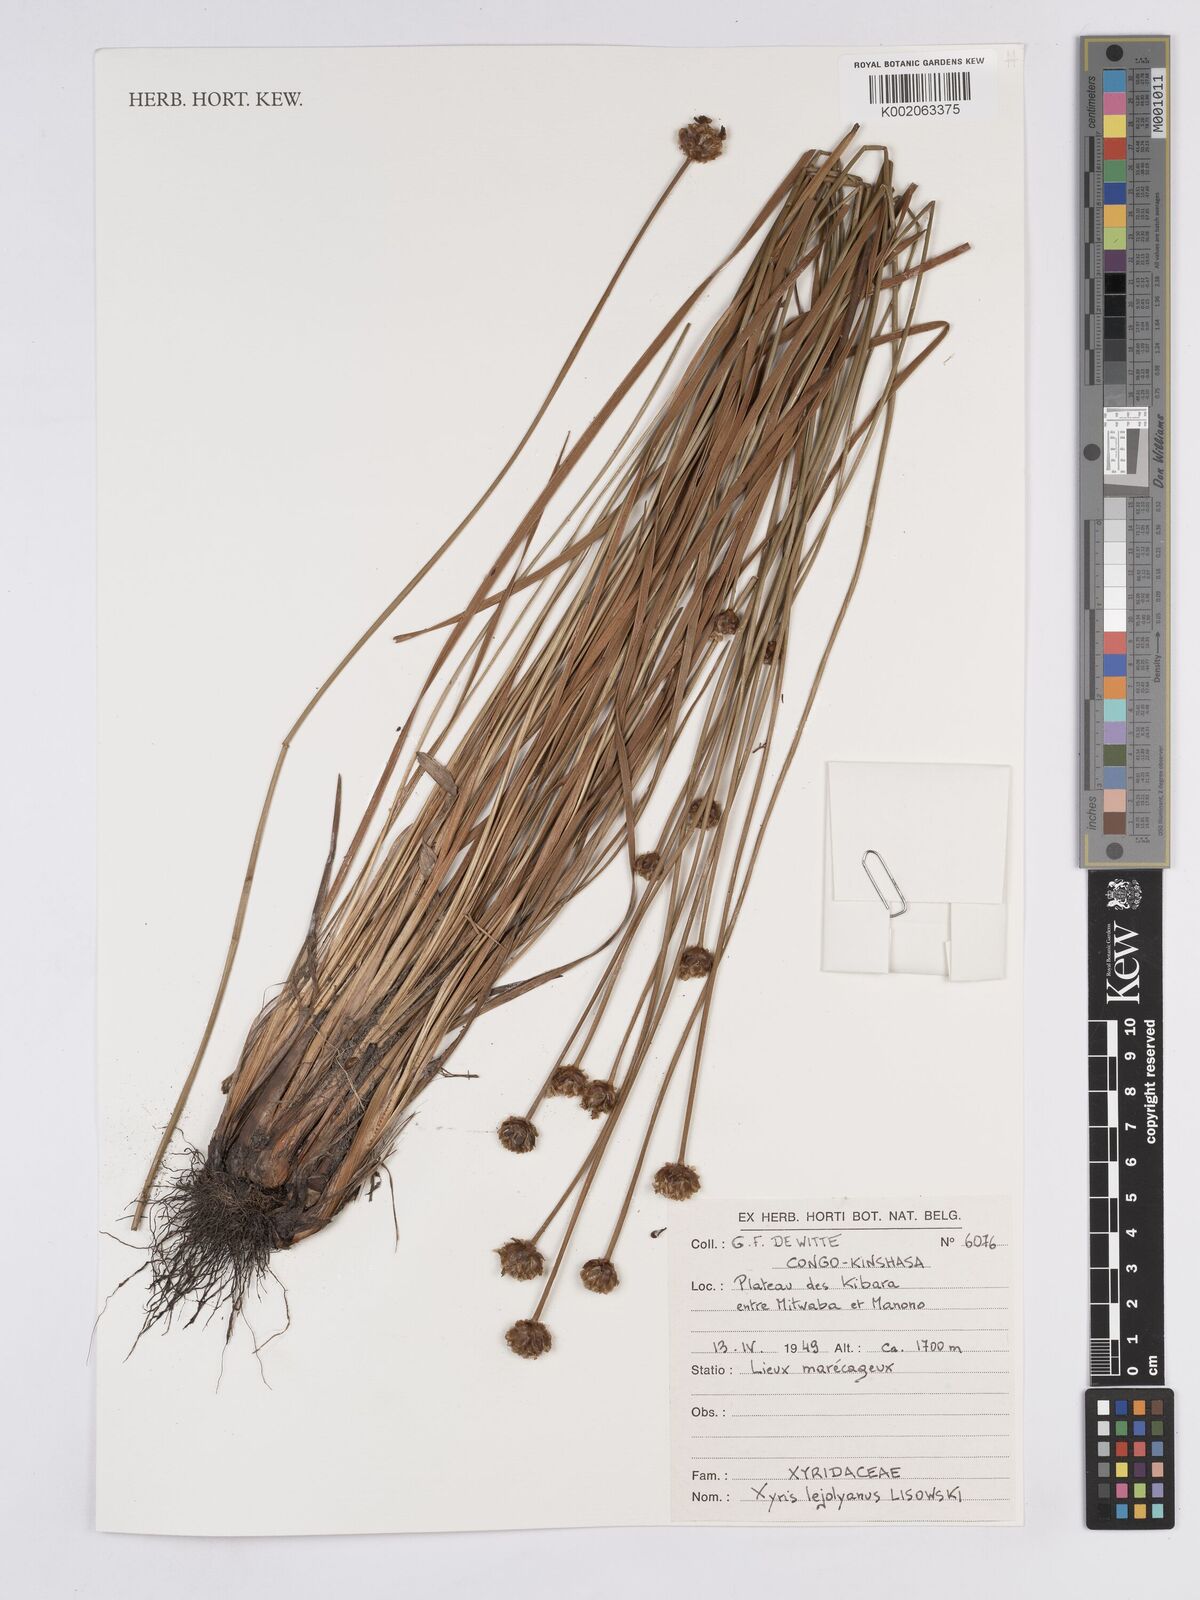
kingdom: Plantae
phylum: Tracheophyta
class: Liliopsida
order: Poales
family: Xyridaceae
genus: Xyris
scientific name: Xyris lejolyana
